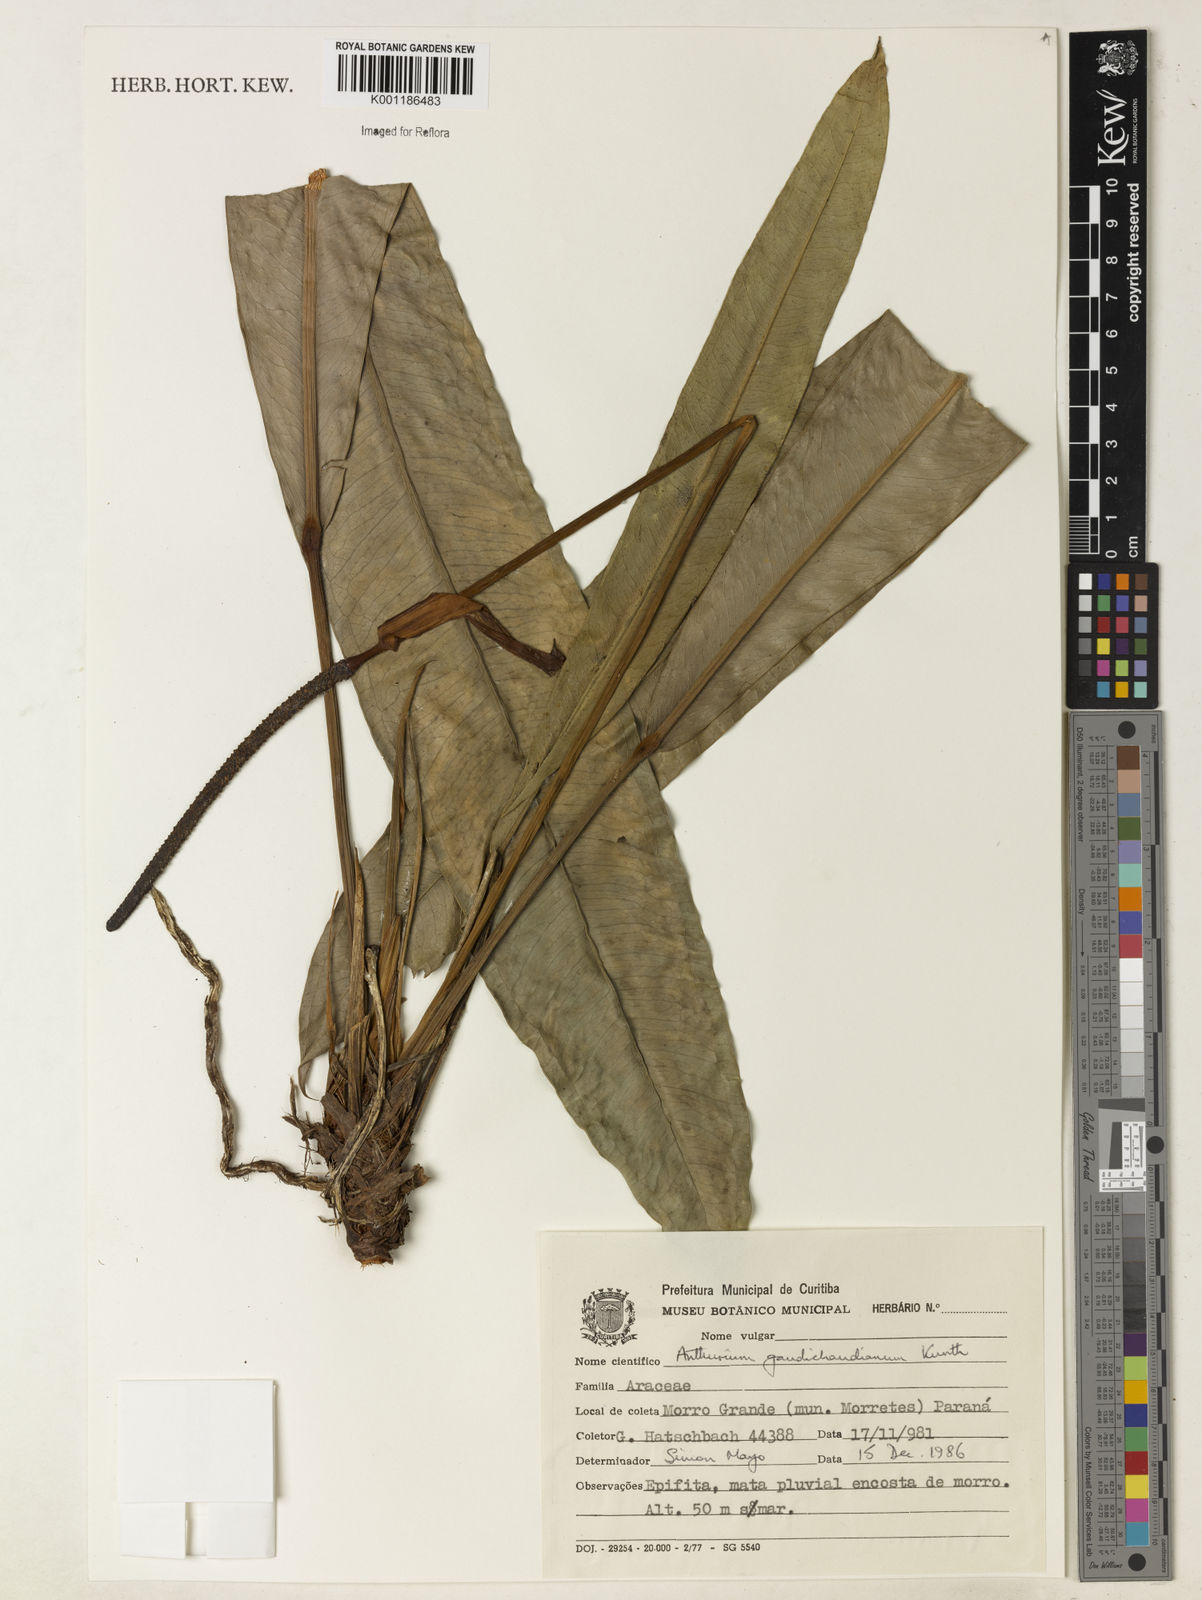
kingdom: Plantae
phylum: Tracheophyta
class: Liliopsida
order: Alismatales
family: Araceae
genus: Anthurium
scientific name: Anthurium gaudichaudianum
